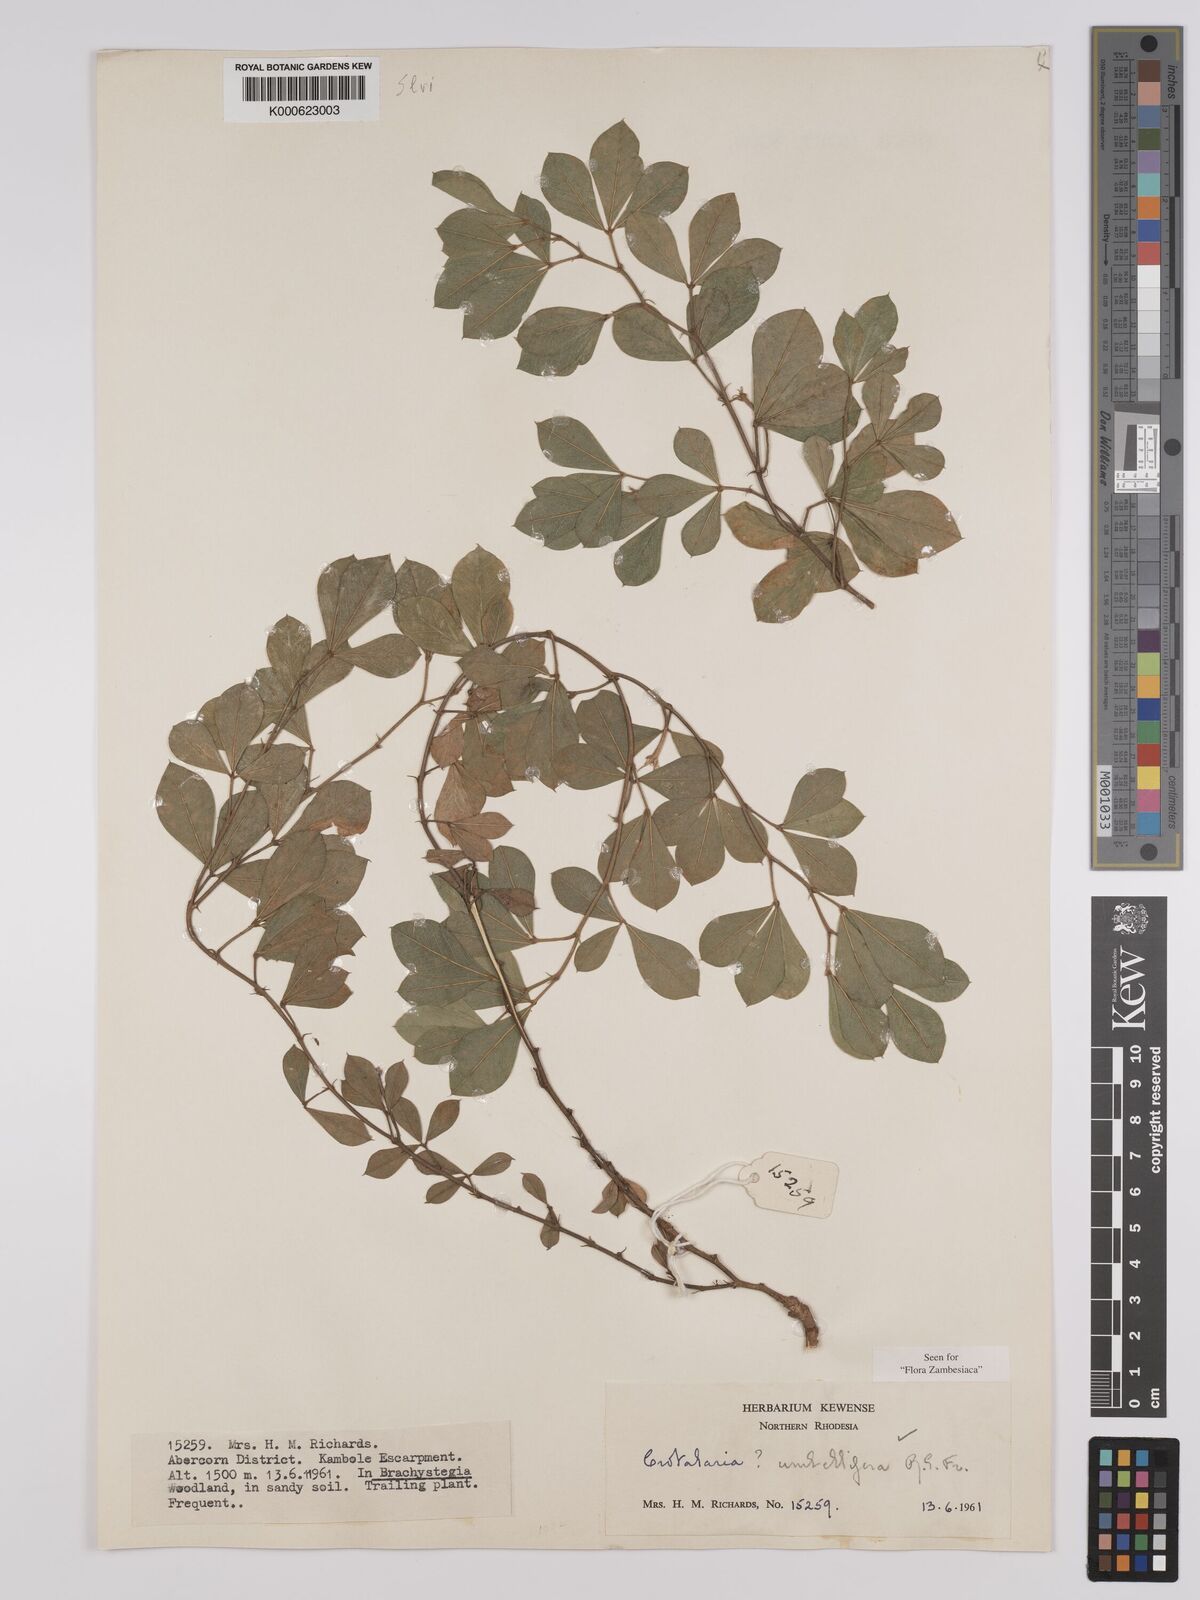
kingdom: Plantae
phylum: Tracheophyta
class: Magnoliopsida
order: Fabales
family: Fabaceae
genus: Crotalaria
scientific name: Crotalaria umbellifera
